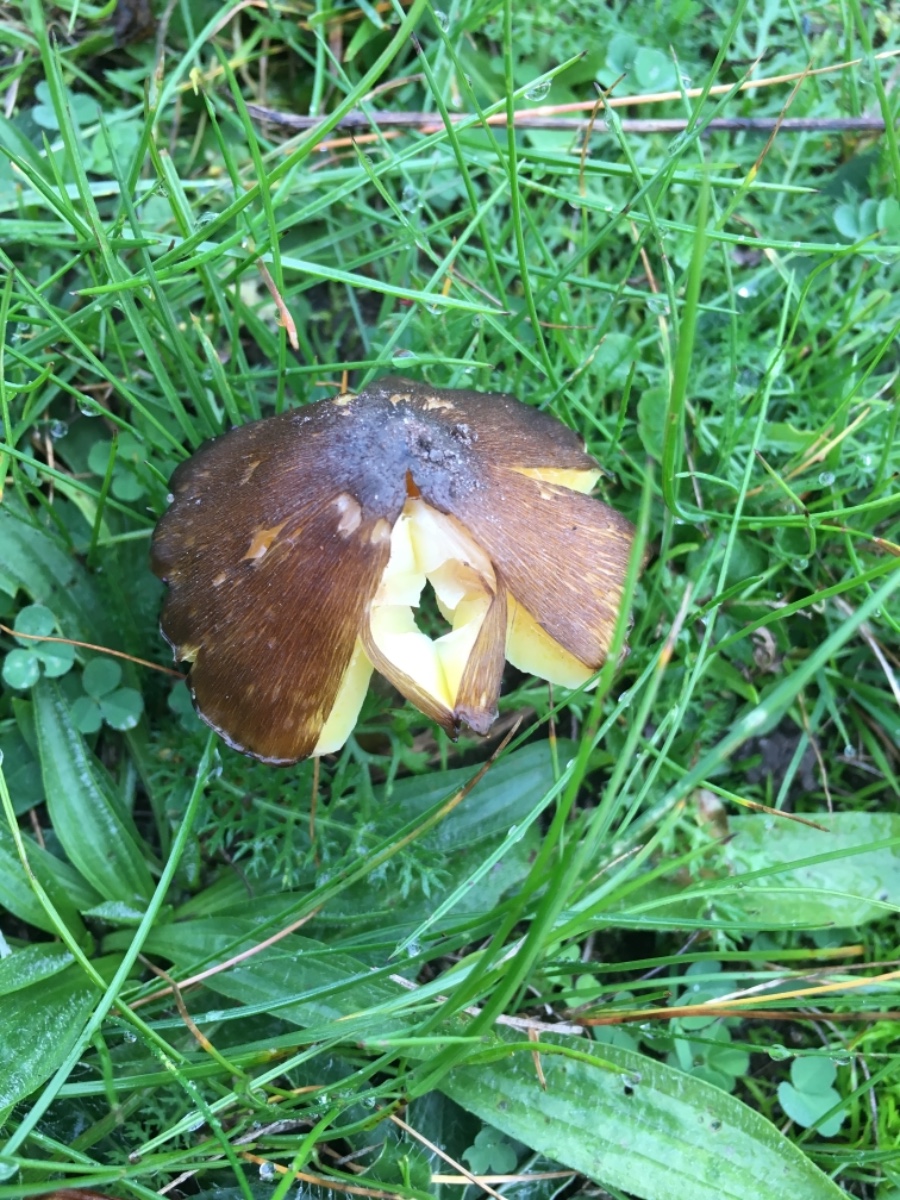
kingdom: Fungi
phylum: Basidiomycota
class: Agaricomycetes
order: Agaricales
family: Hygrophoraceae
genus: Hygrocybe
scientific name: Hygrocybe spadicea
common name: daddelbrun vokshat
